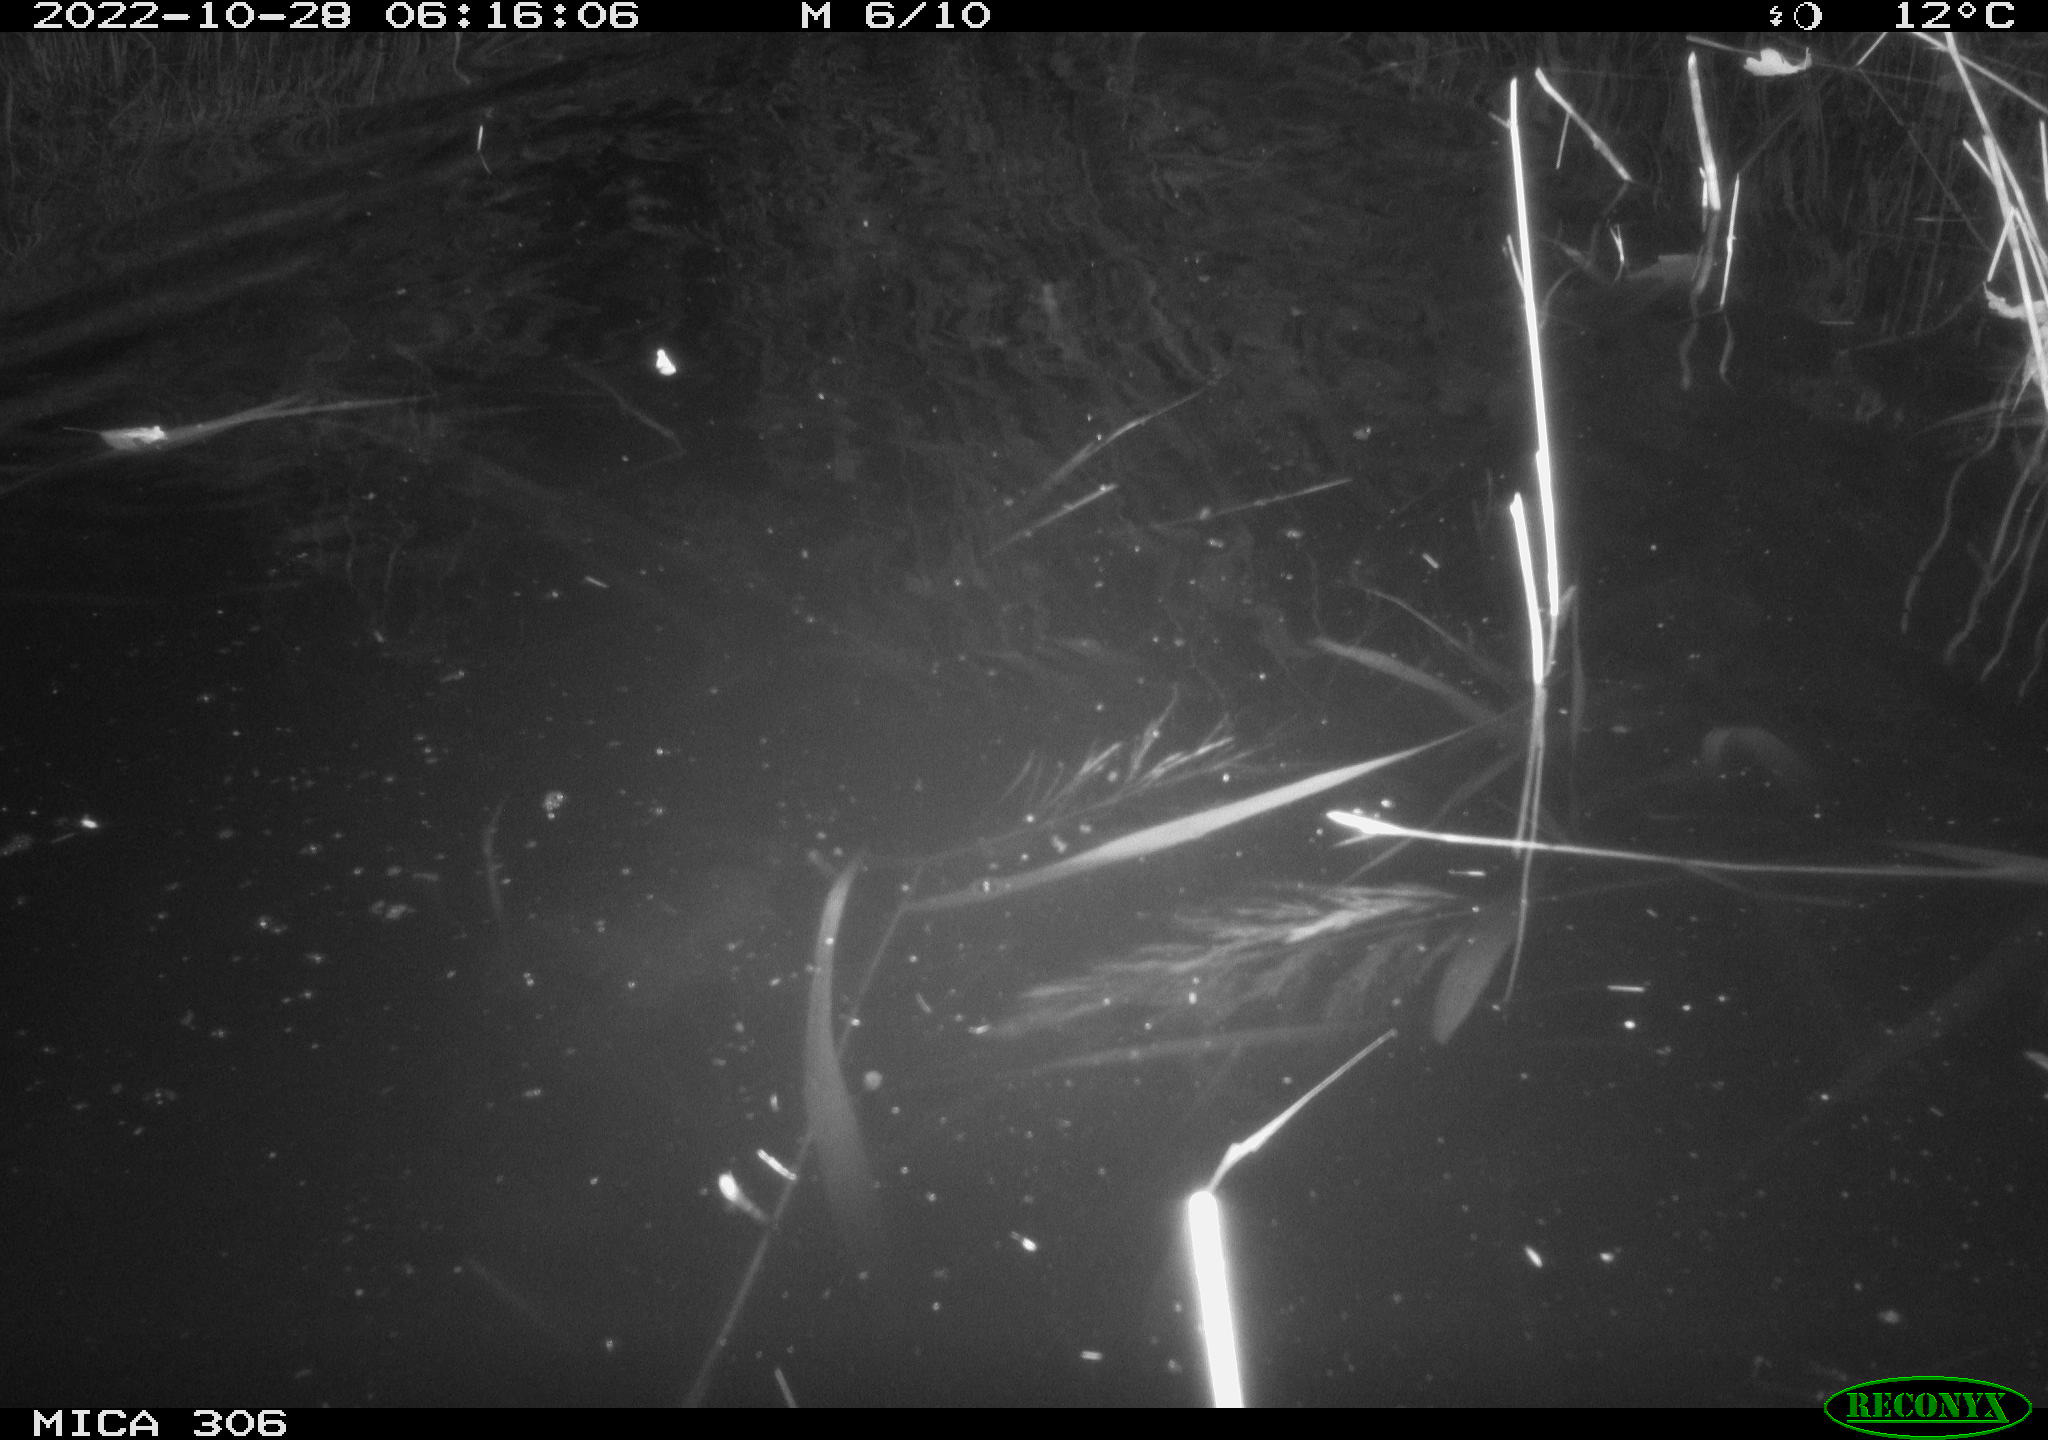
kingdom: Animalia
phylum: Chordata
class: Mammalia
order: Rodentia
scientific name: Rodentia
